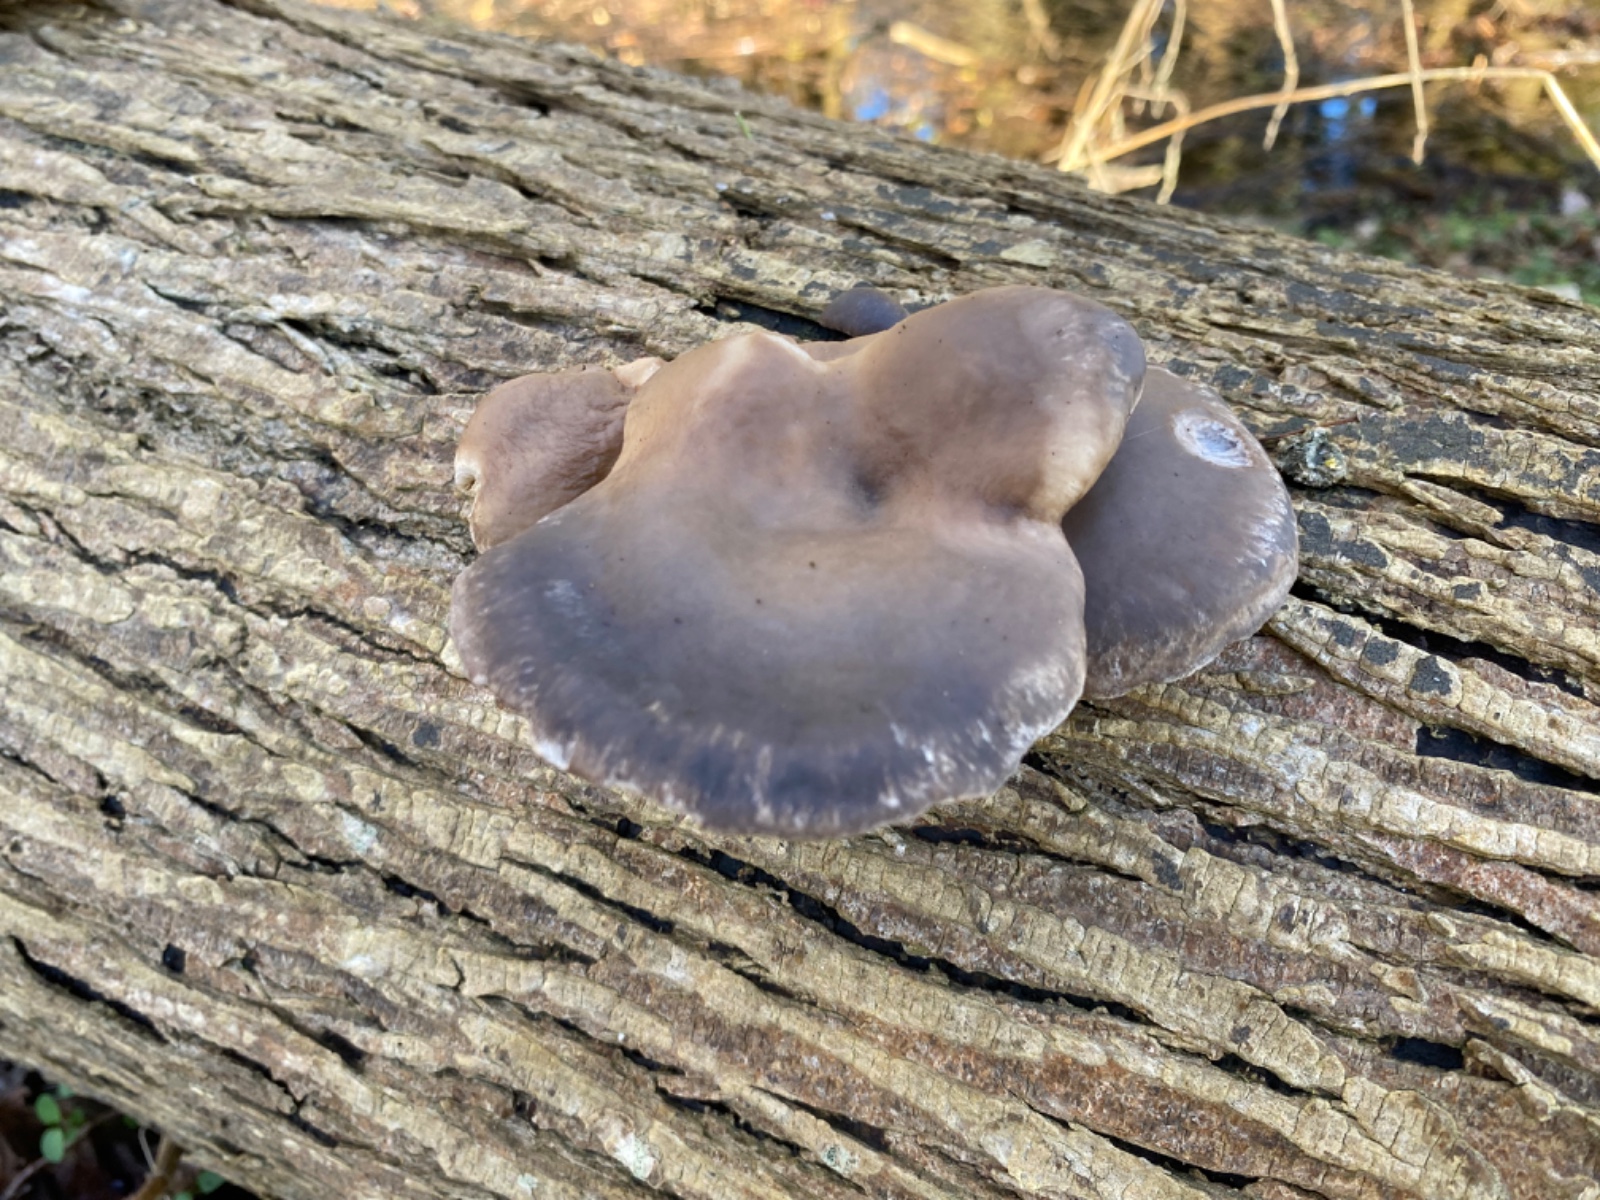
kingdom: Fungi
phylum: Basidiomycota
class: Agaricomycetes
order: Agaricales
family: Pleurotaceae
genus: Pleurotus
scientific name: Pleurotus ostreatus
